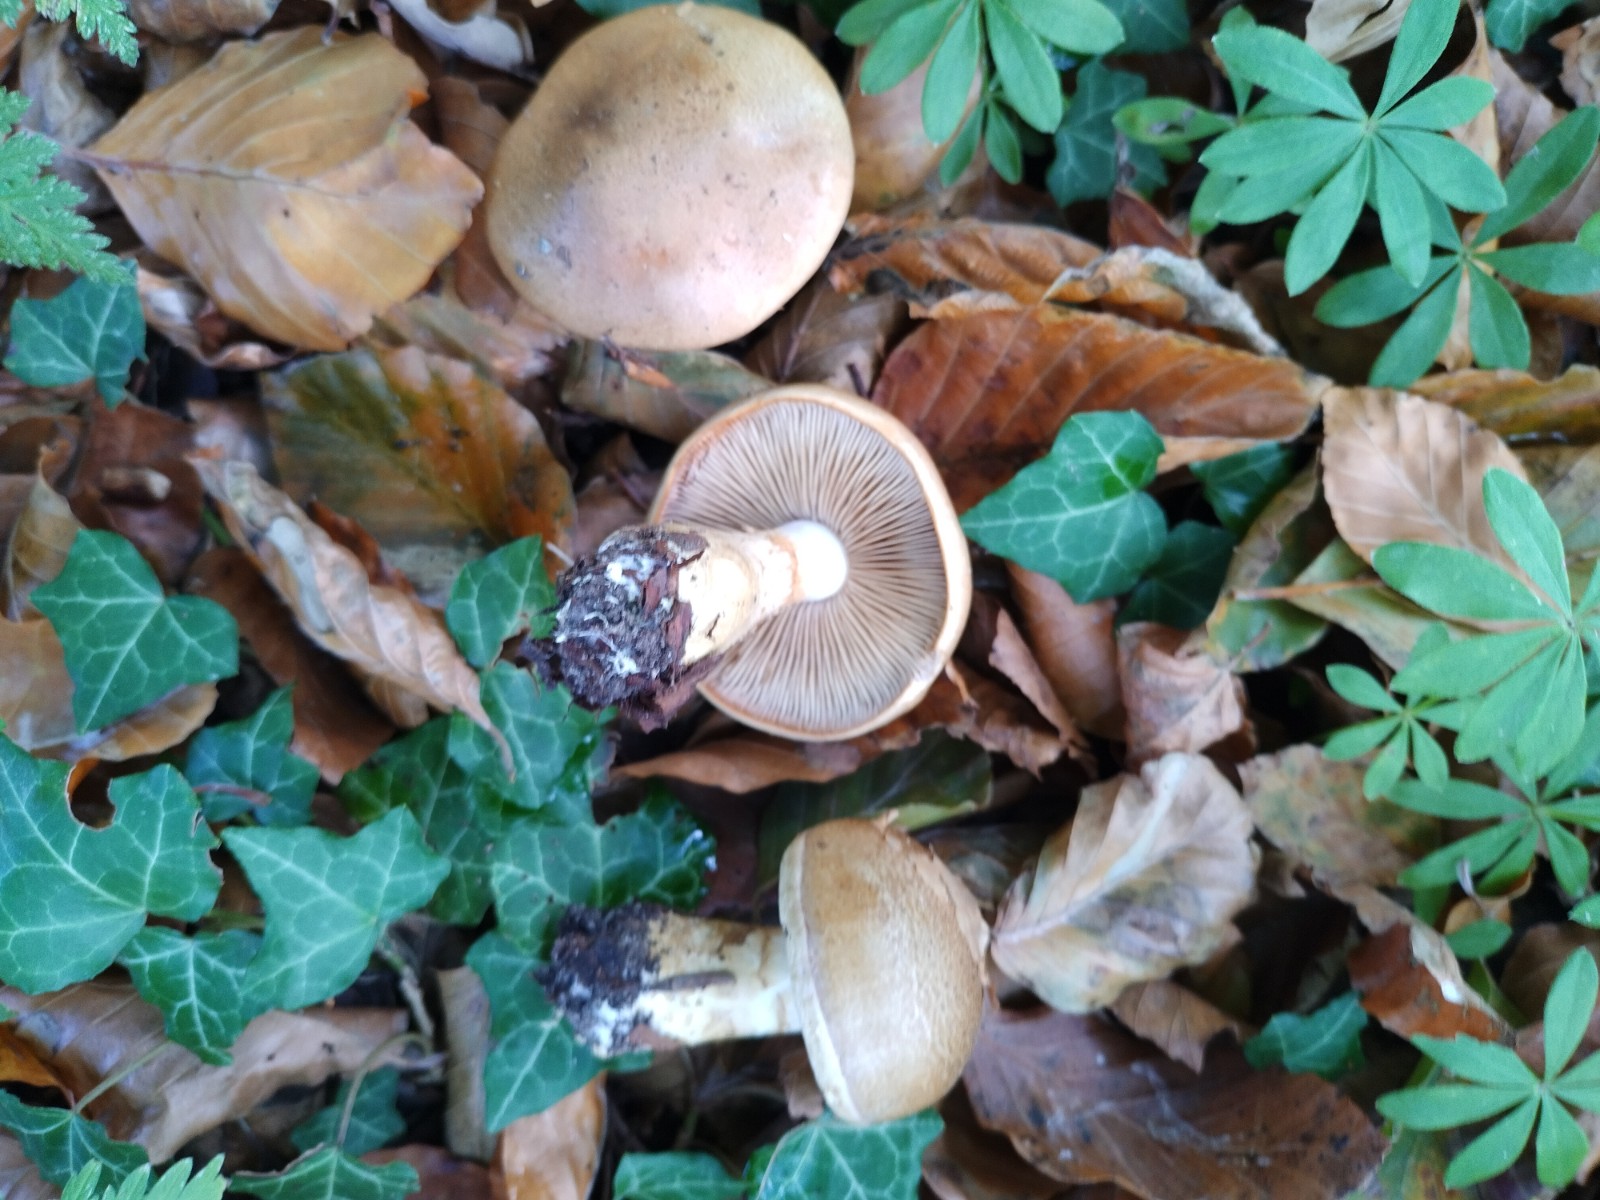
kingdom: Fungi
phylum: Basidiomycota
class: Agaricomycetes
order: Agaricales
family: Cortinariaceae
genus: Phlegmacium
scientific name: Phlegmacium cliduchus
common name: majs-slørhat
